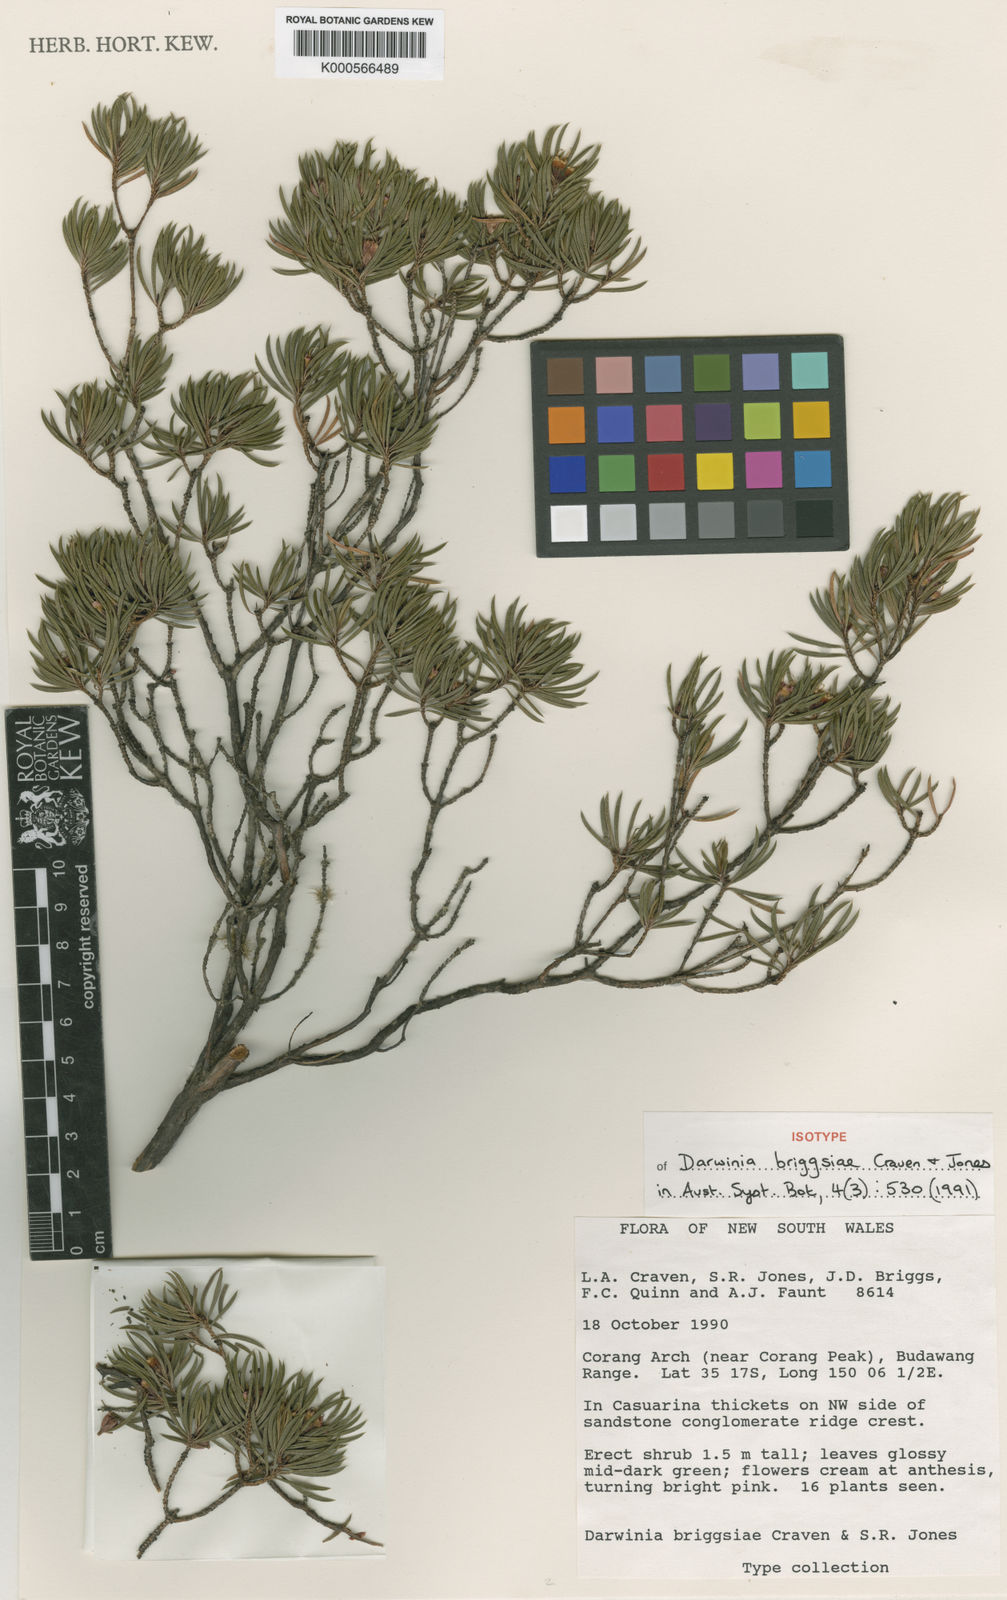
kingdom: Plantae
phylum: Tracheophyta
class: Magnoliopsida
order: Myrtales
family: Myrtaceae
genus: Darwinia
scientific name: Darwinia briggsiae
